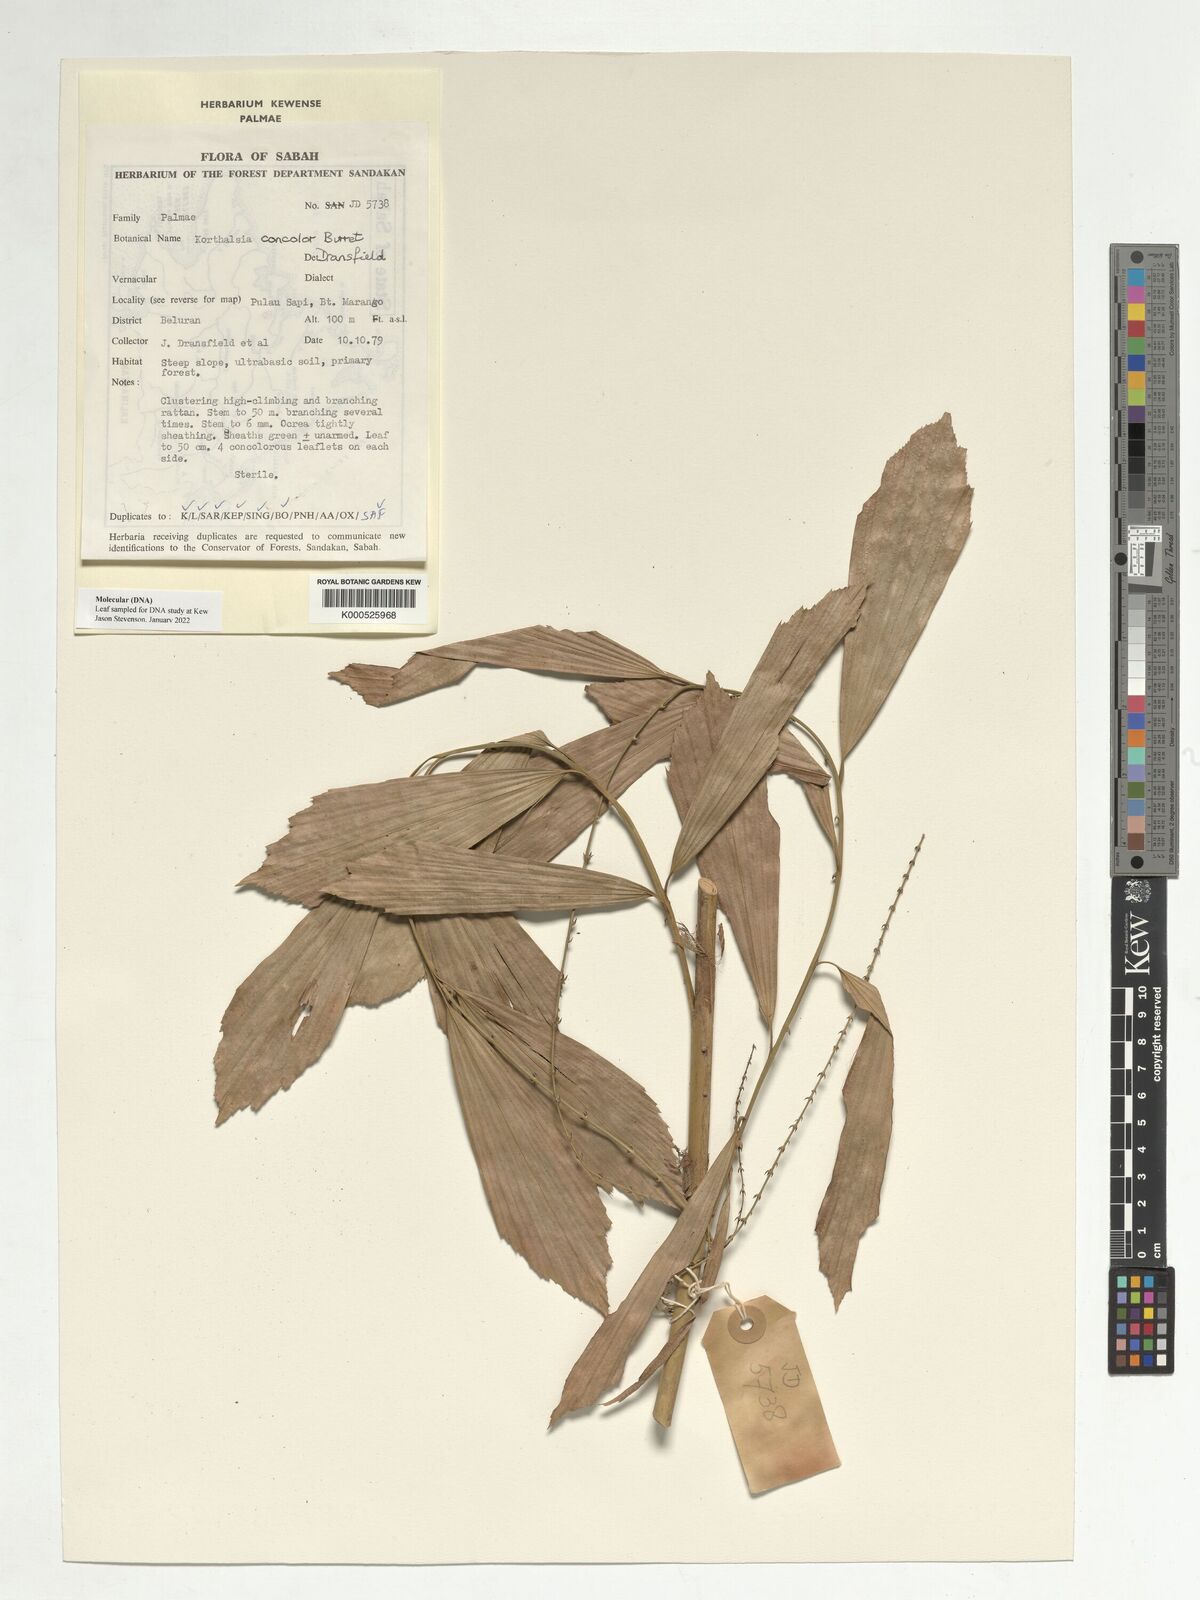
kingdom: Plantae
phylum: Tracheophyta
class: Liliopsida
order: Arecales
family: Arecaceae
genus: Korthalsia
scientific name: Korthalsia concolor
